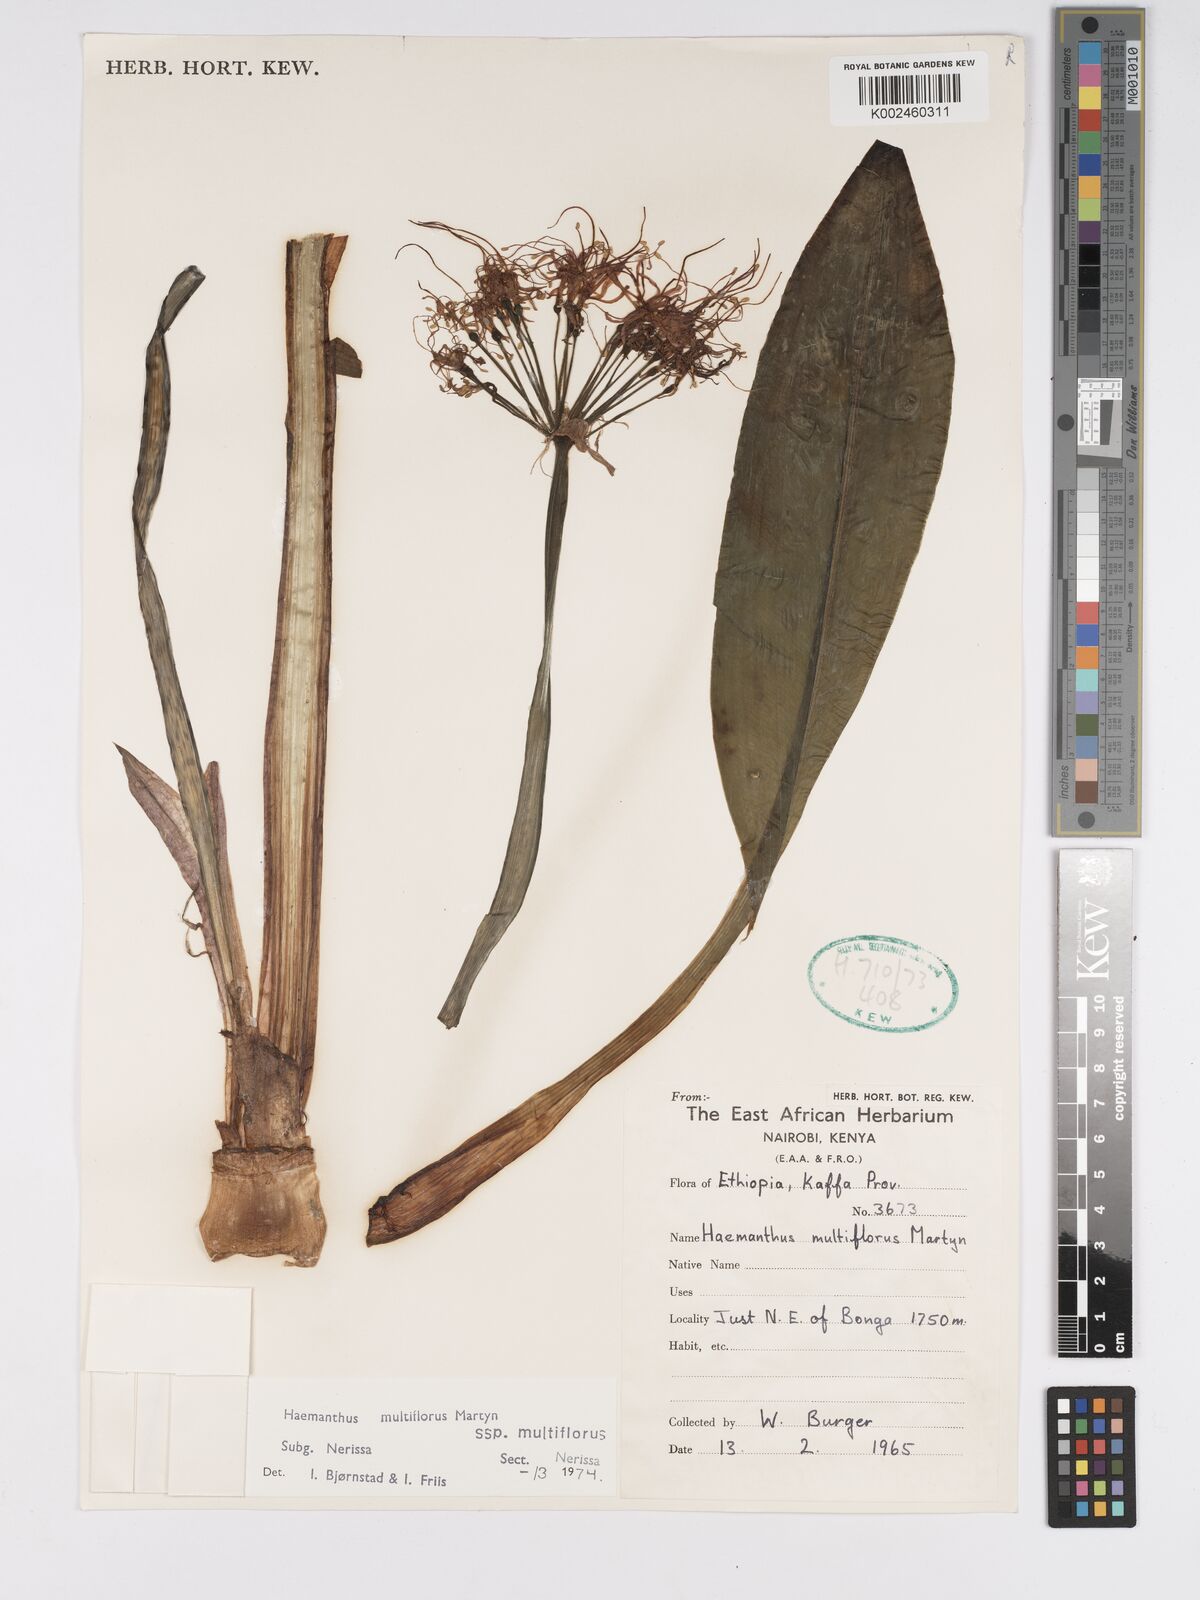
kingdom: Plantae
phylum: Tracheophyta
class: Liliopsida
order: Asparagales
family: Amaryllidaceae
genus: Scadoxus
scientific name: Scadoxus multiflorus
